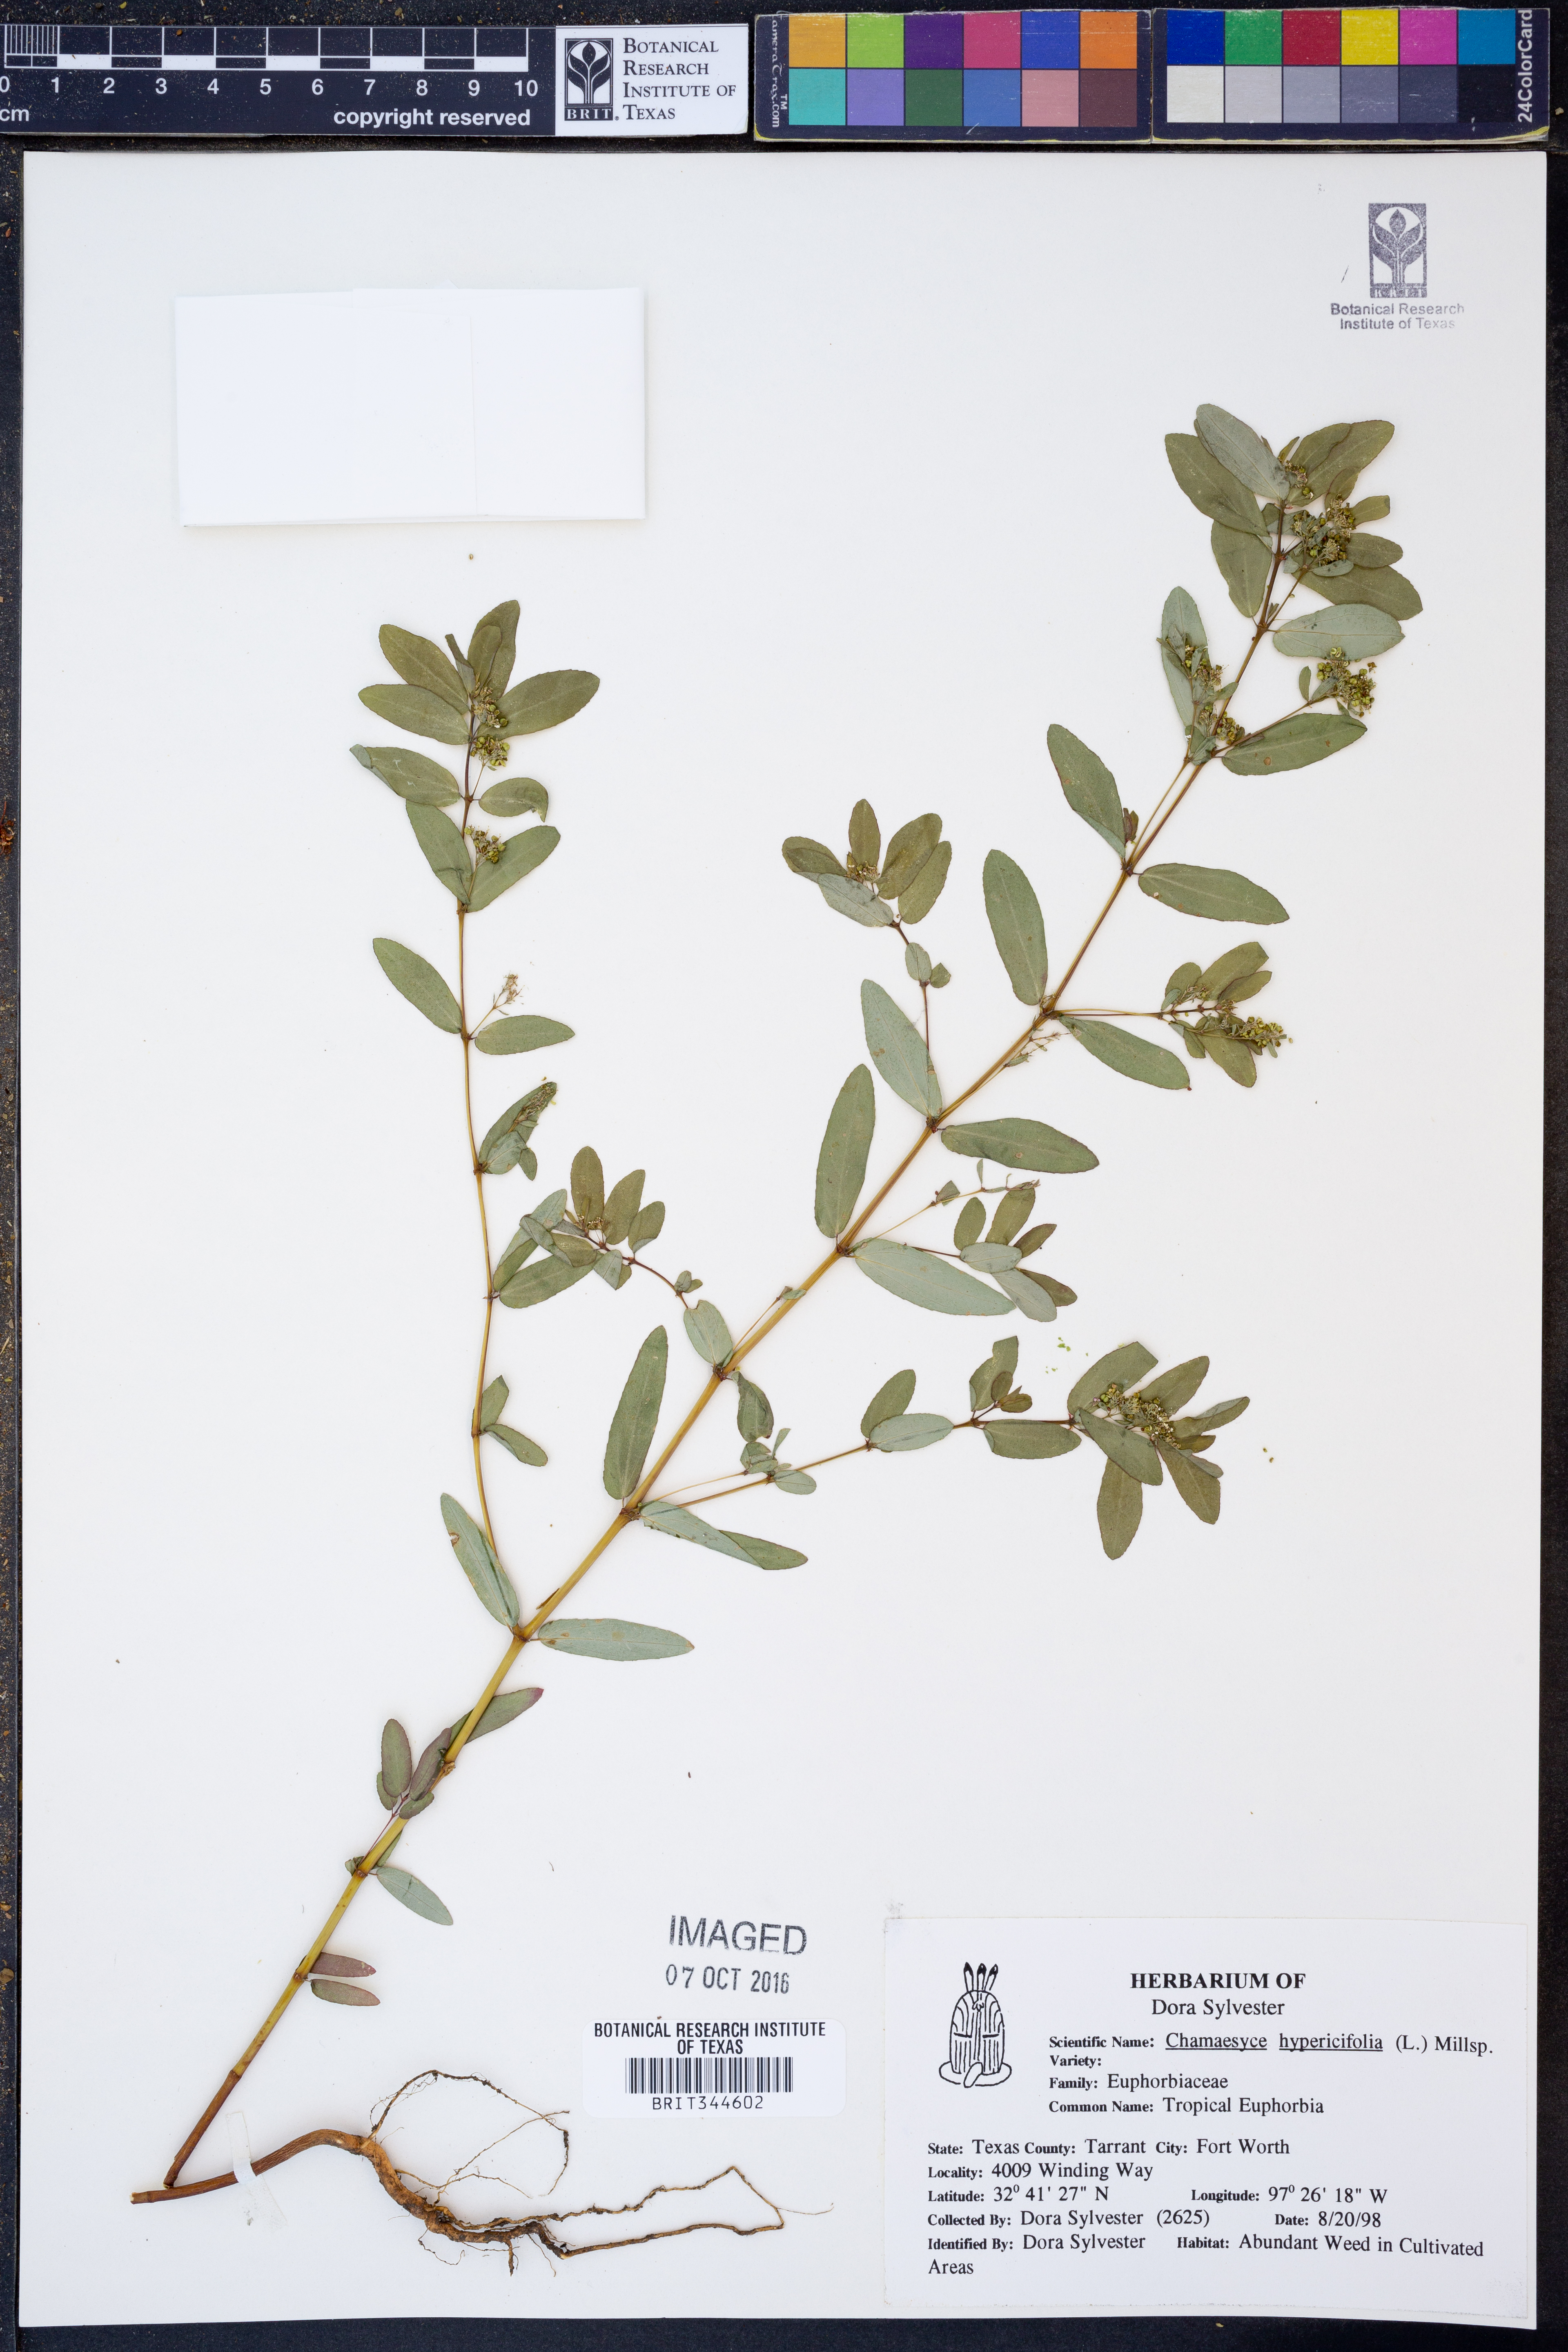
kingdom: Plantae
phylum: Tracheophyta
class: Magnoliopsida
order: Malpighiales
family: Euphorbiaceae
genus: Euphorbia
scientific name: Euphorbia hypericifolia
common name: Graceful sandmat
